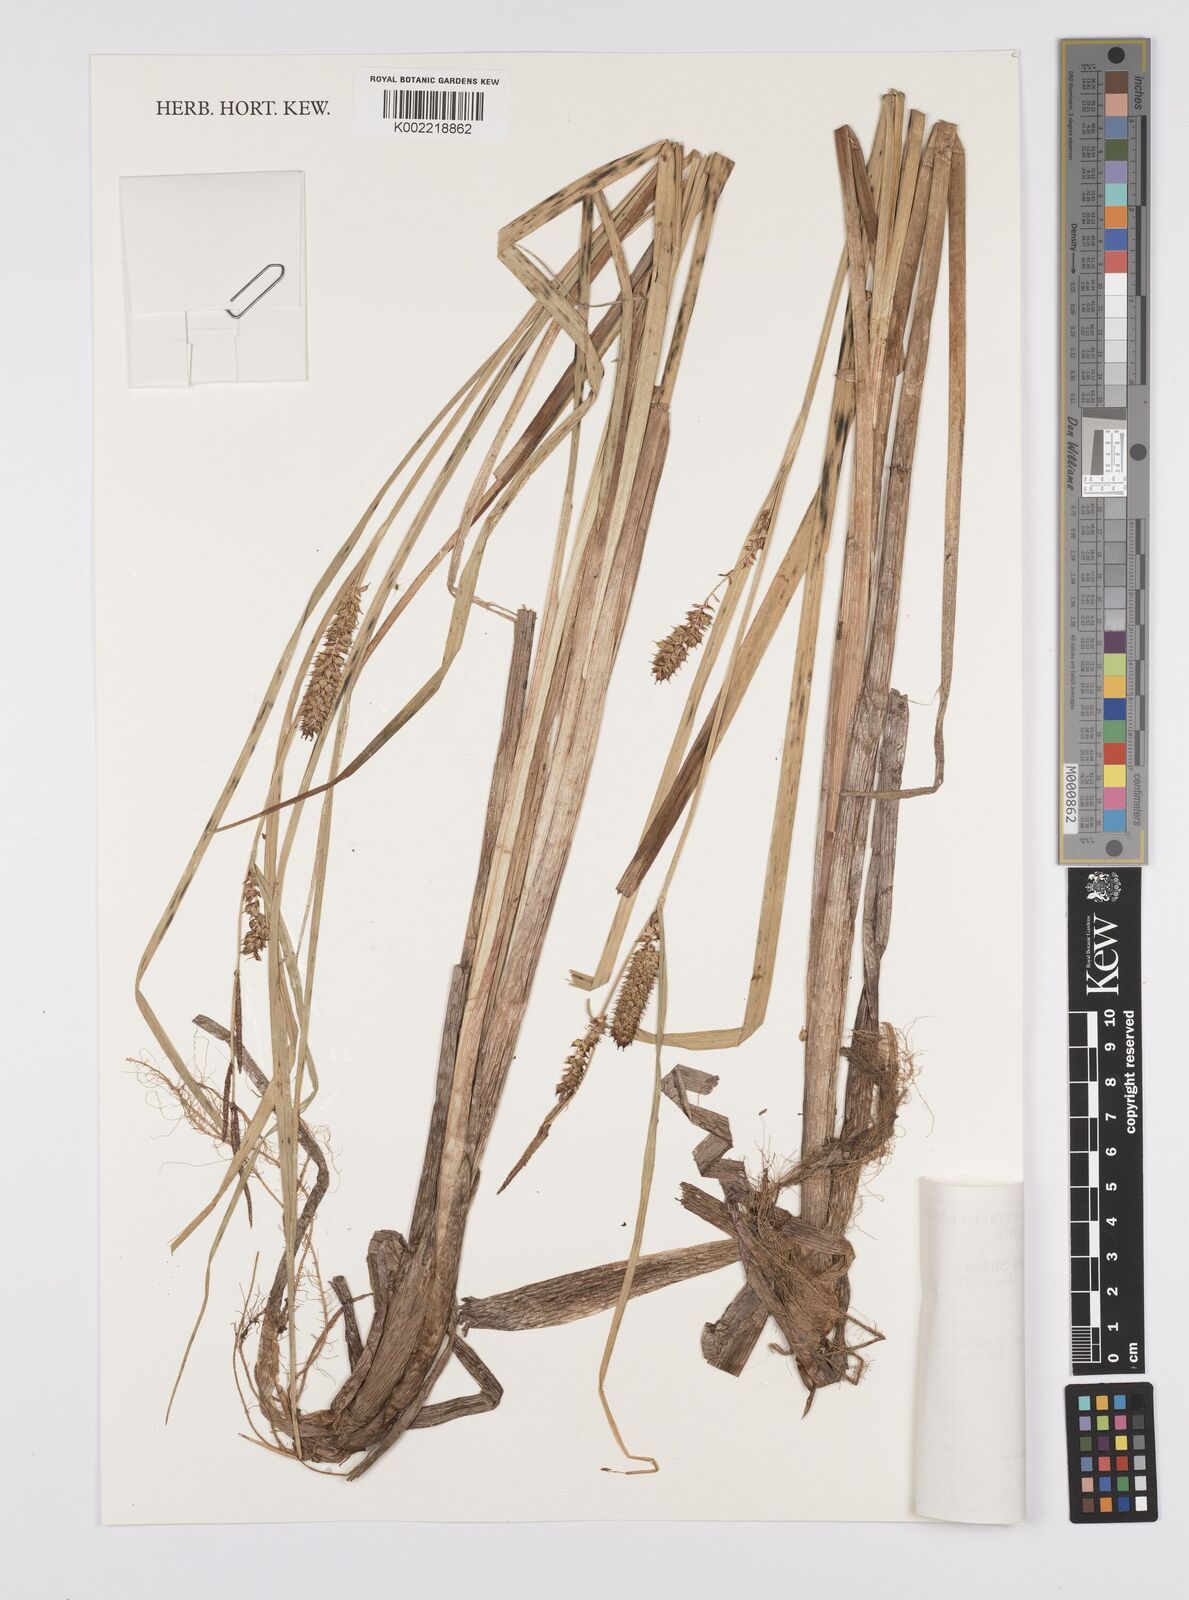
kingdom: Plantae
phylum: Tracheophyta
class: Liliopsida
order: Poales
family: Cyperaceae
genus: Carex
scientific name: Carex rostrata
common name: Bottle sedge
